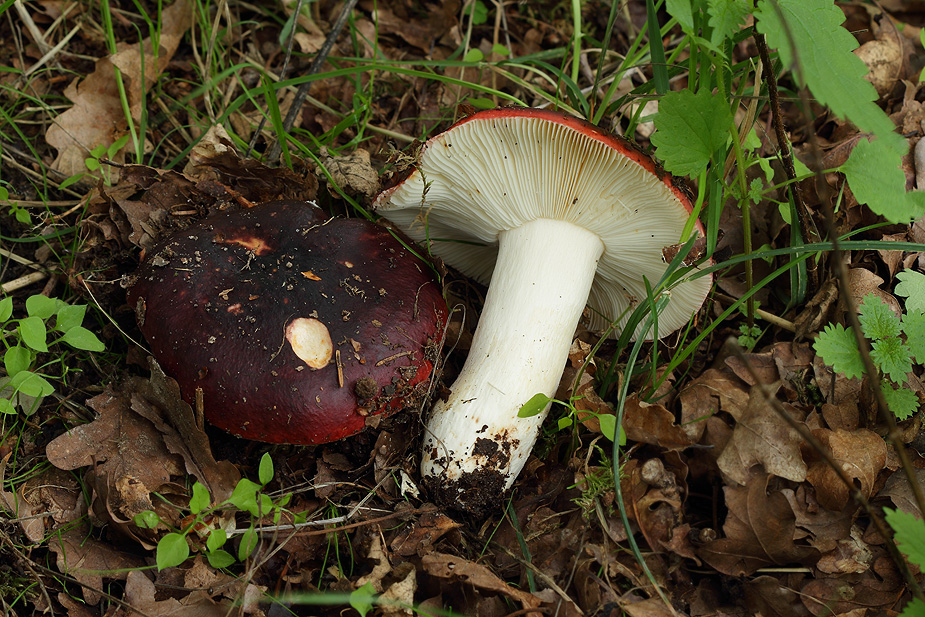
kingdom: Fungi
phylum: Basidiomycota
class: Agaricomycetes
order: Russulales
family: Russulaceae
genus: Russula
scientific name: Russula atropurpurea
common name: purpurbroget skørhat
